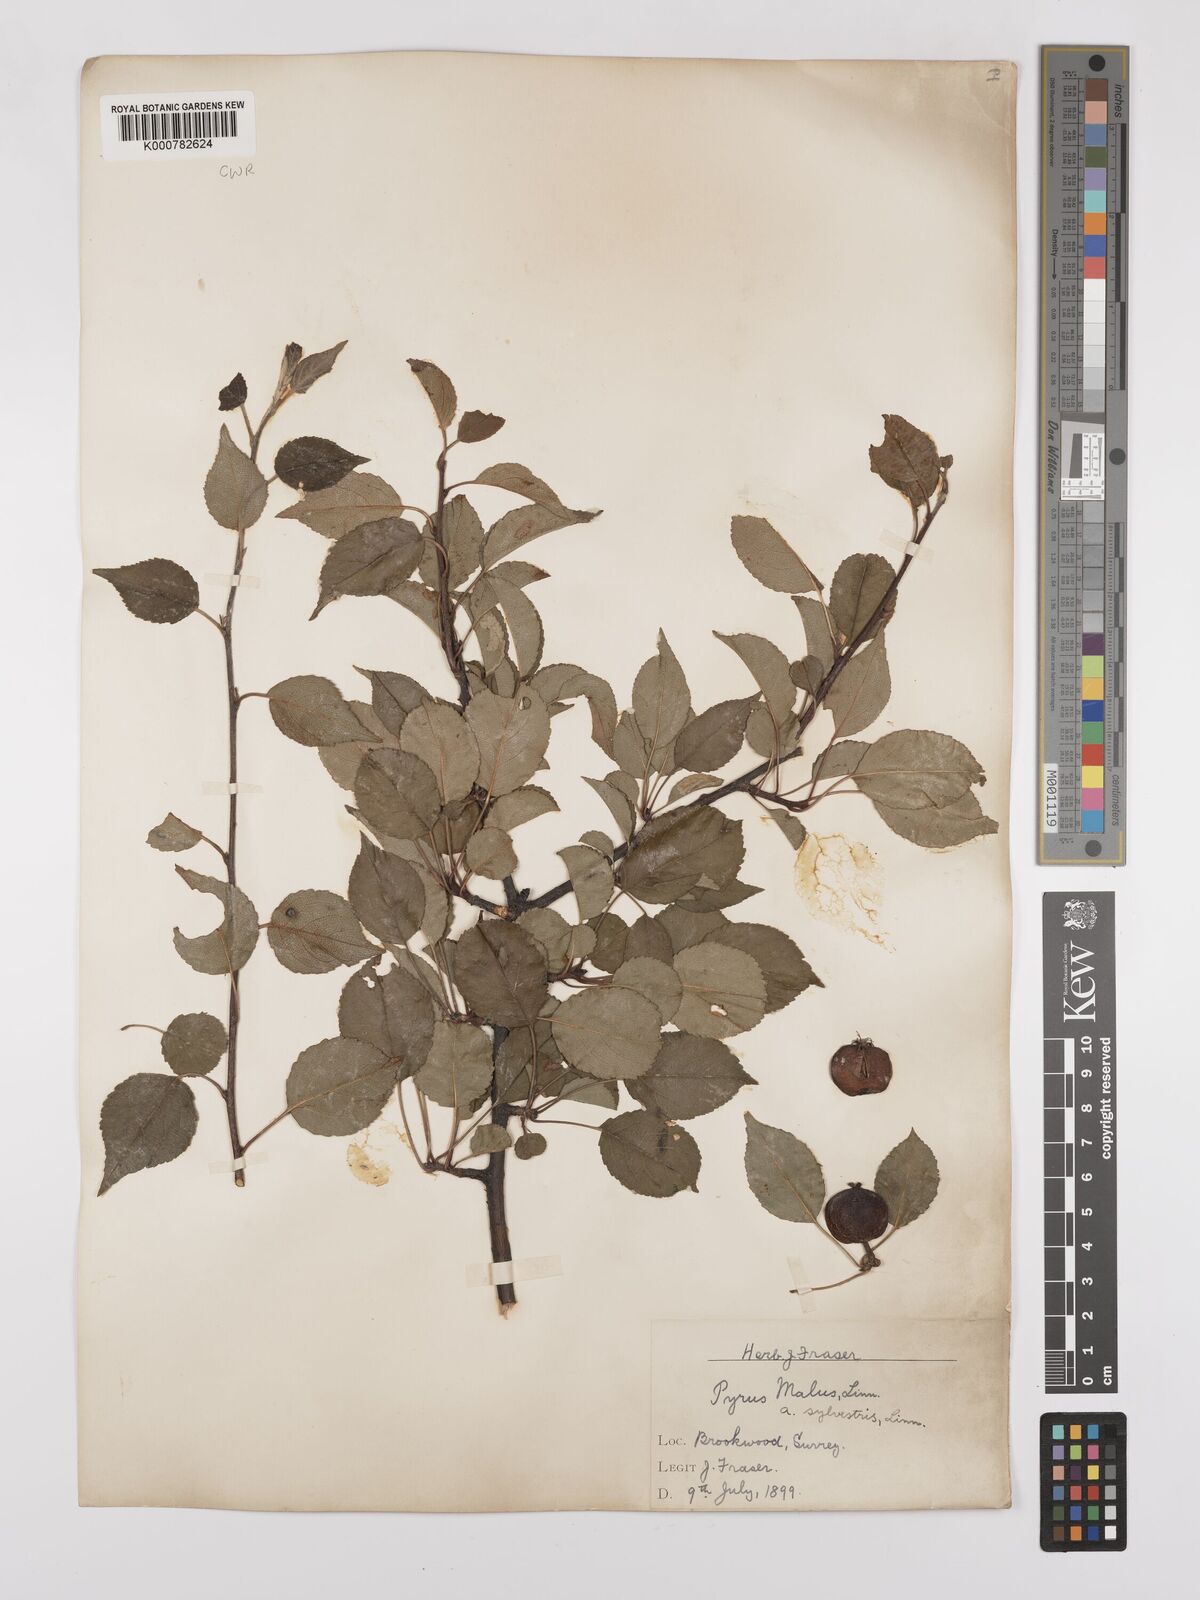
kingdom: Plantae
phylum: Tracheophyta
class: Magnoliopsida
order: Rosales
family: Rosaceae
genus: Malus
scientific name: Malus domestica
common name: Apple
